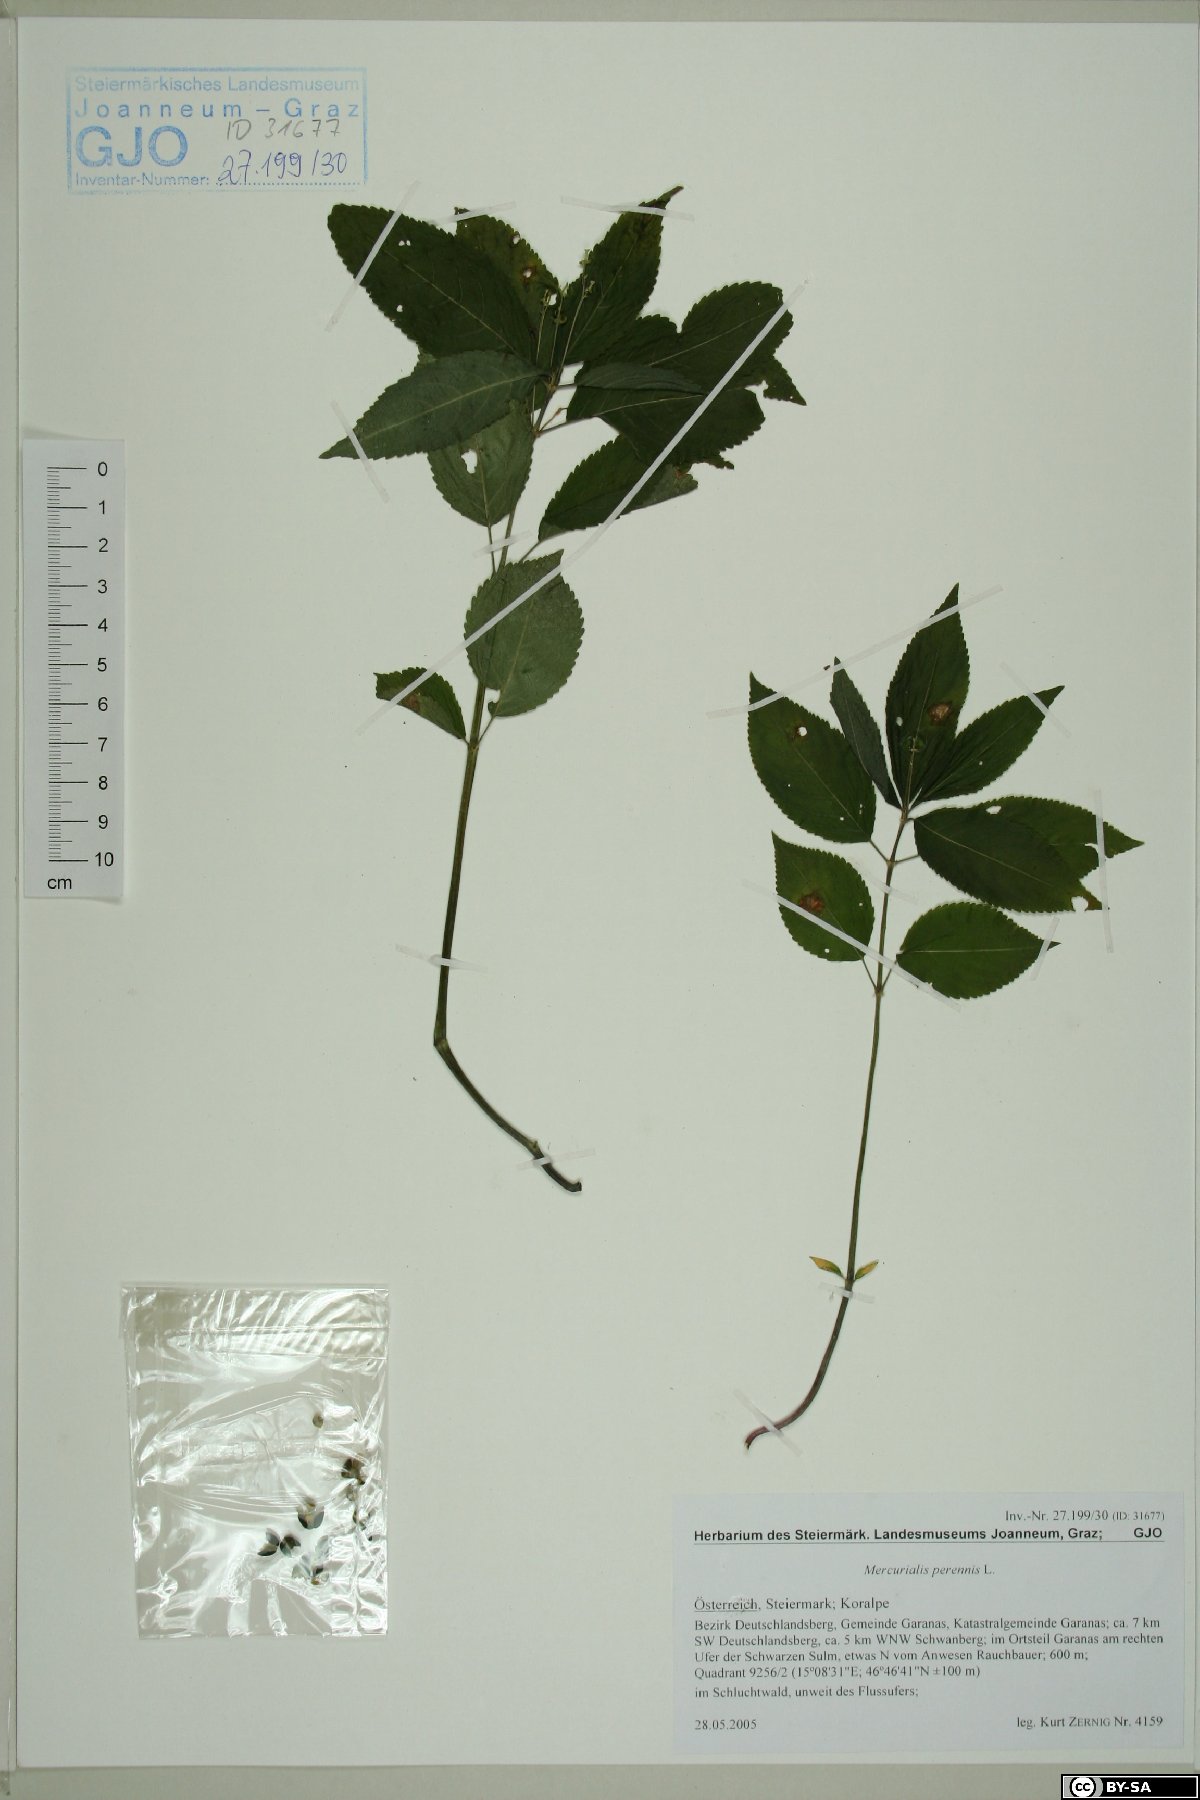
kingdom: Plantae
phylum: Tracheophyta
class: Magnoliopsida
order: Malpighiales
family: Euphorbiaceae
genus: Mercurialis
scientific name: Mercurialis perennis
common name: Dog mercury
